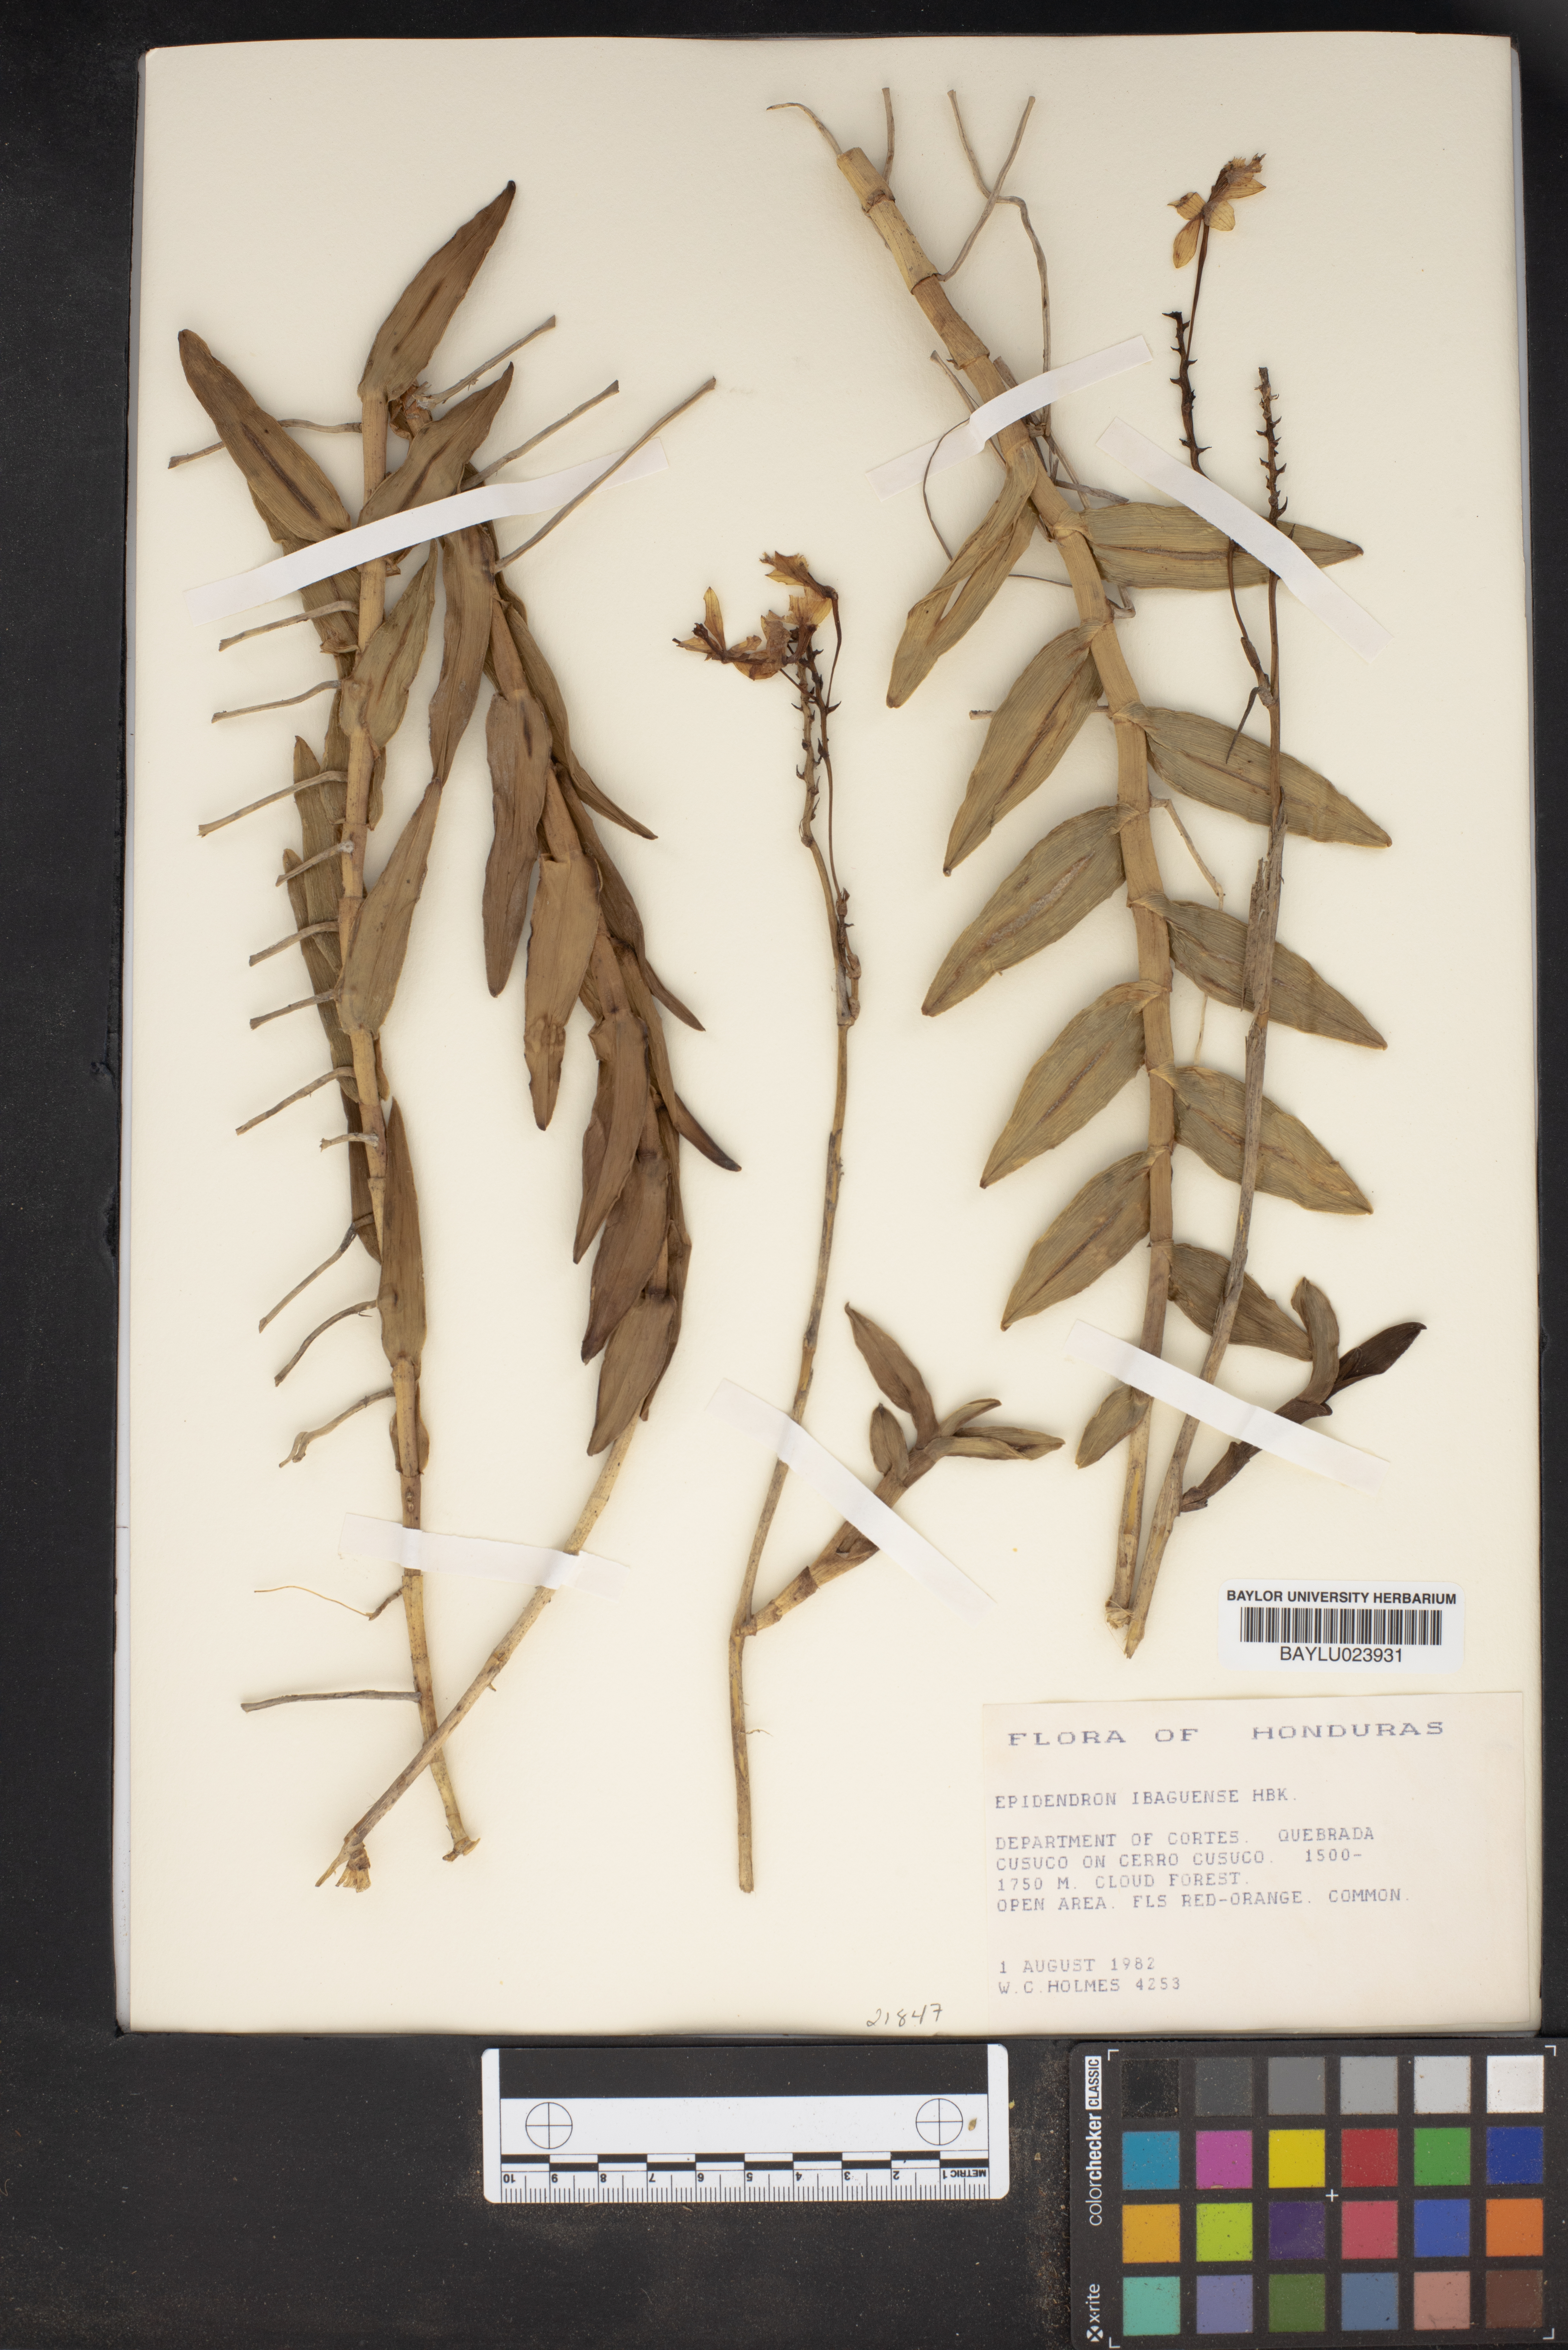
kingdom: Plantae
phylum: Tracheophyta
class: Liliopsida
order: Asparagales
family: Orchidaceae
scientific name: Orchidaceae
